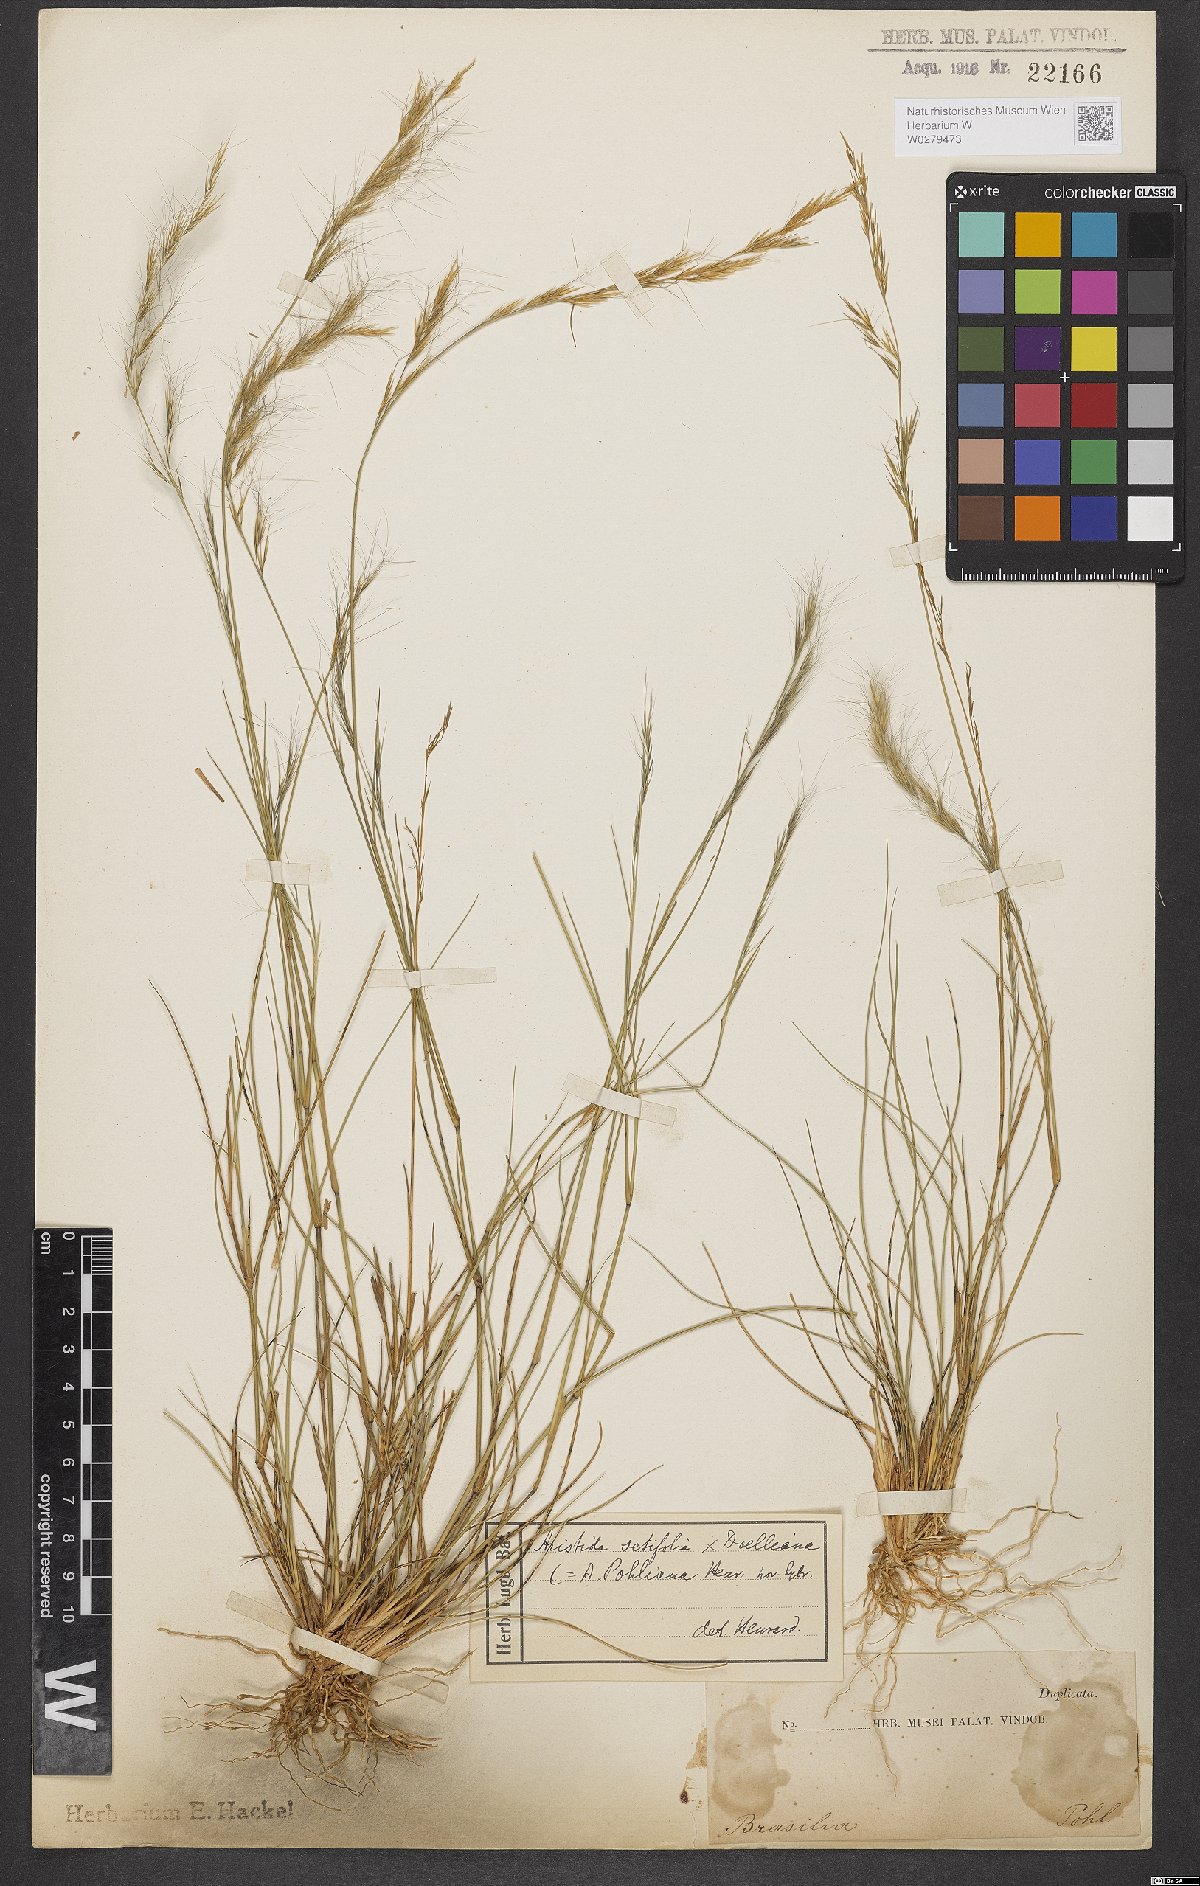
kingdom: Plantae
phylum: Tracheophyta
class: Liliopsida
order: Poales
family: Poaceae
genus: Aristida
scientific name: Aristida setifolia
